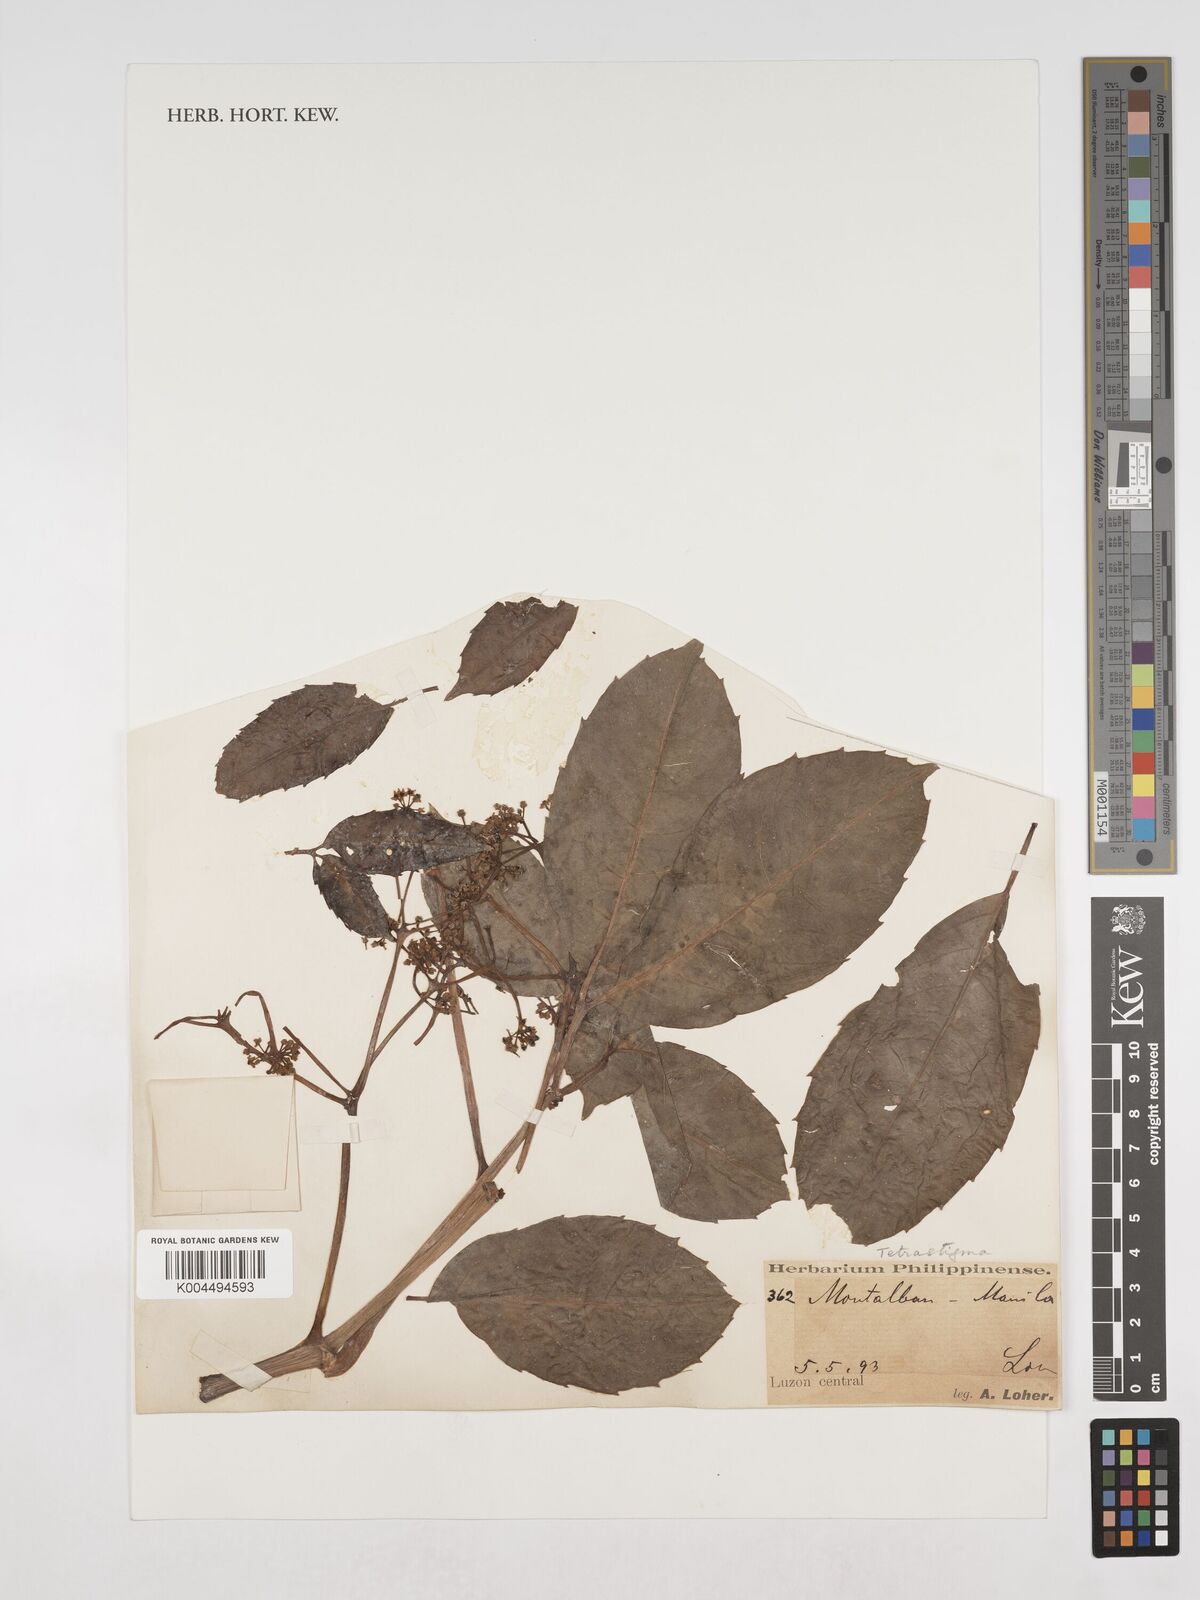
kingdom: Plantae
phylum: Tracheophyta
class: Magnoliopsida
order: Vitales
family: Vitaceae
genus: Tetrastigma
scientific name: Tetrastigma
